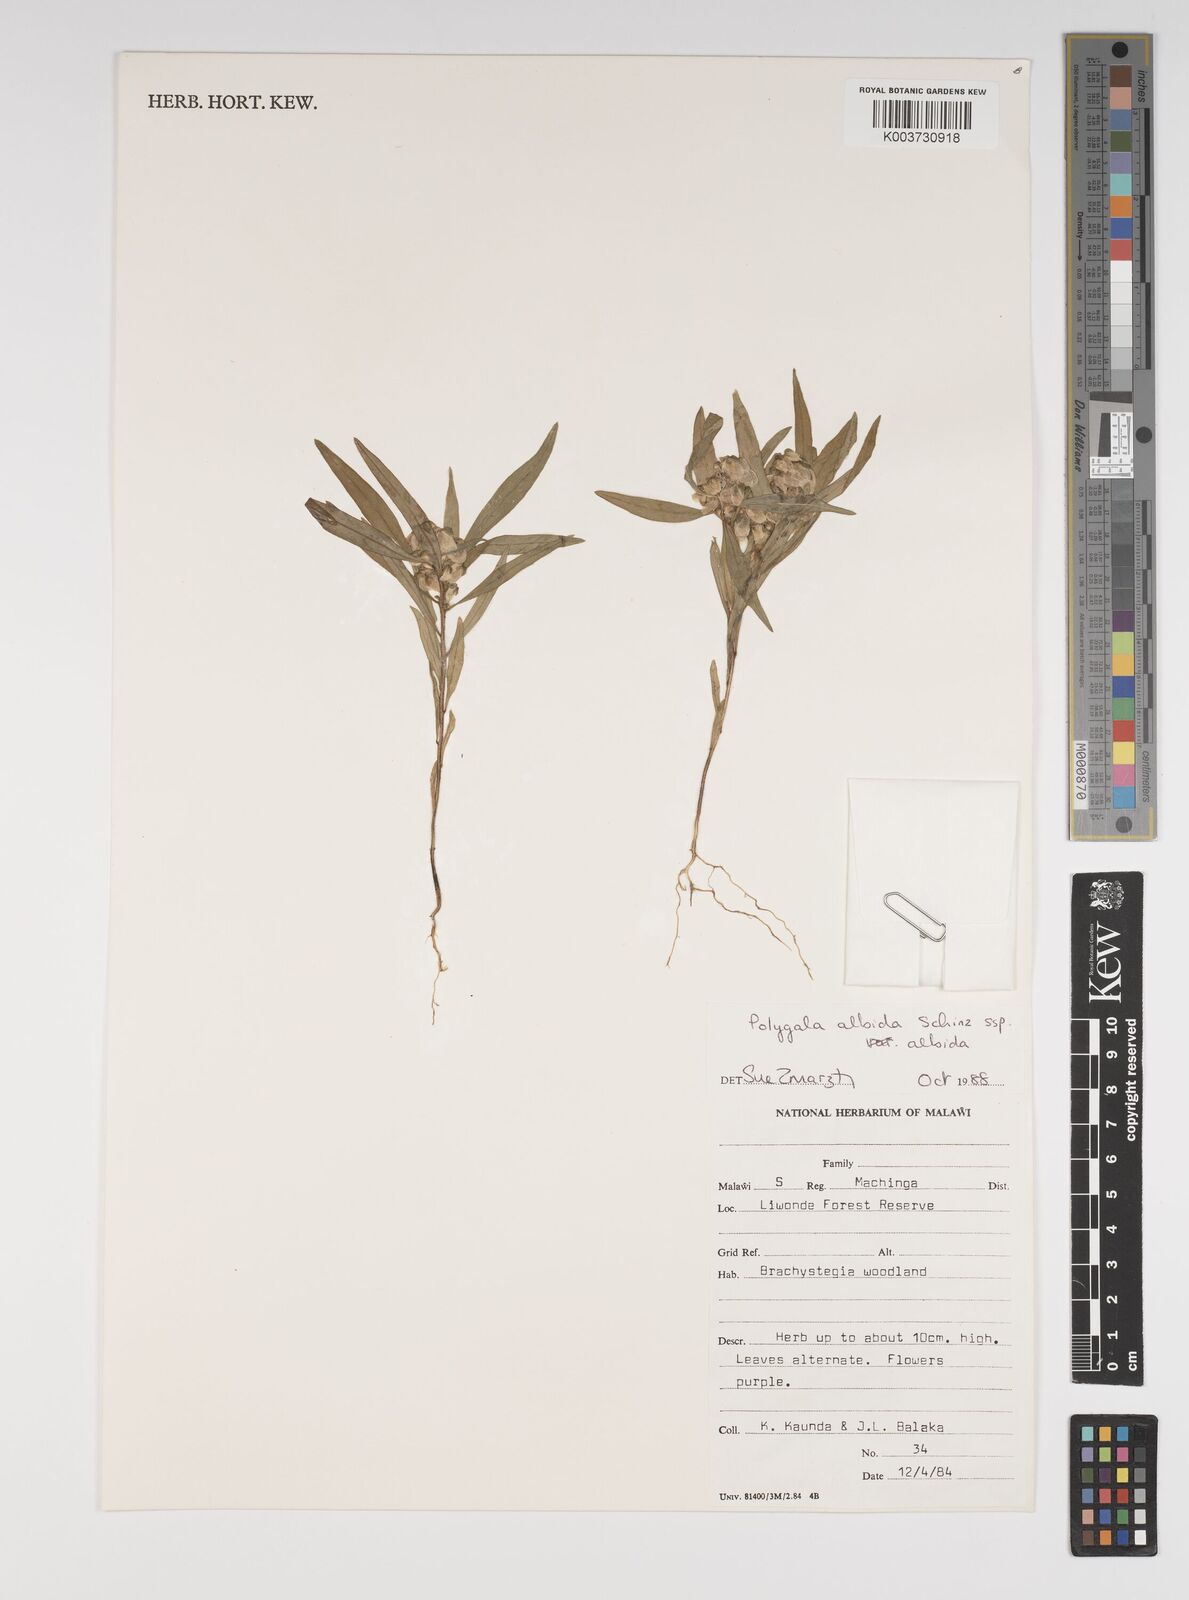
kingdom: Plantae
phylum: Tracheophyta
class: Magnoliopsida
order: Fabales
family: Polygalaceae
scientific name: Polygalaceae
